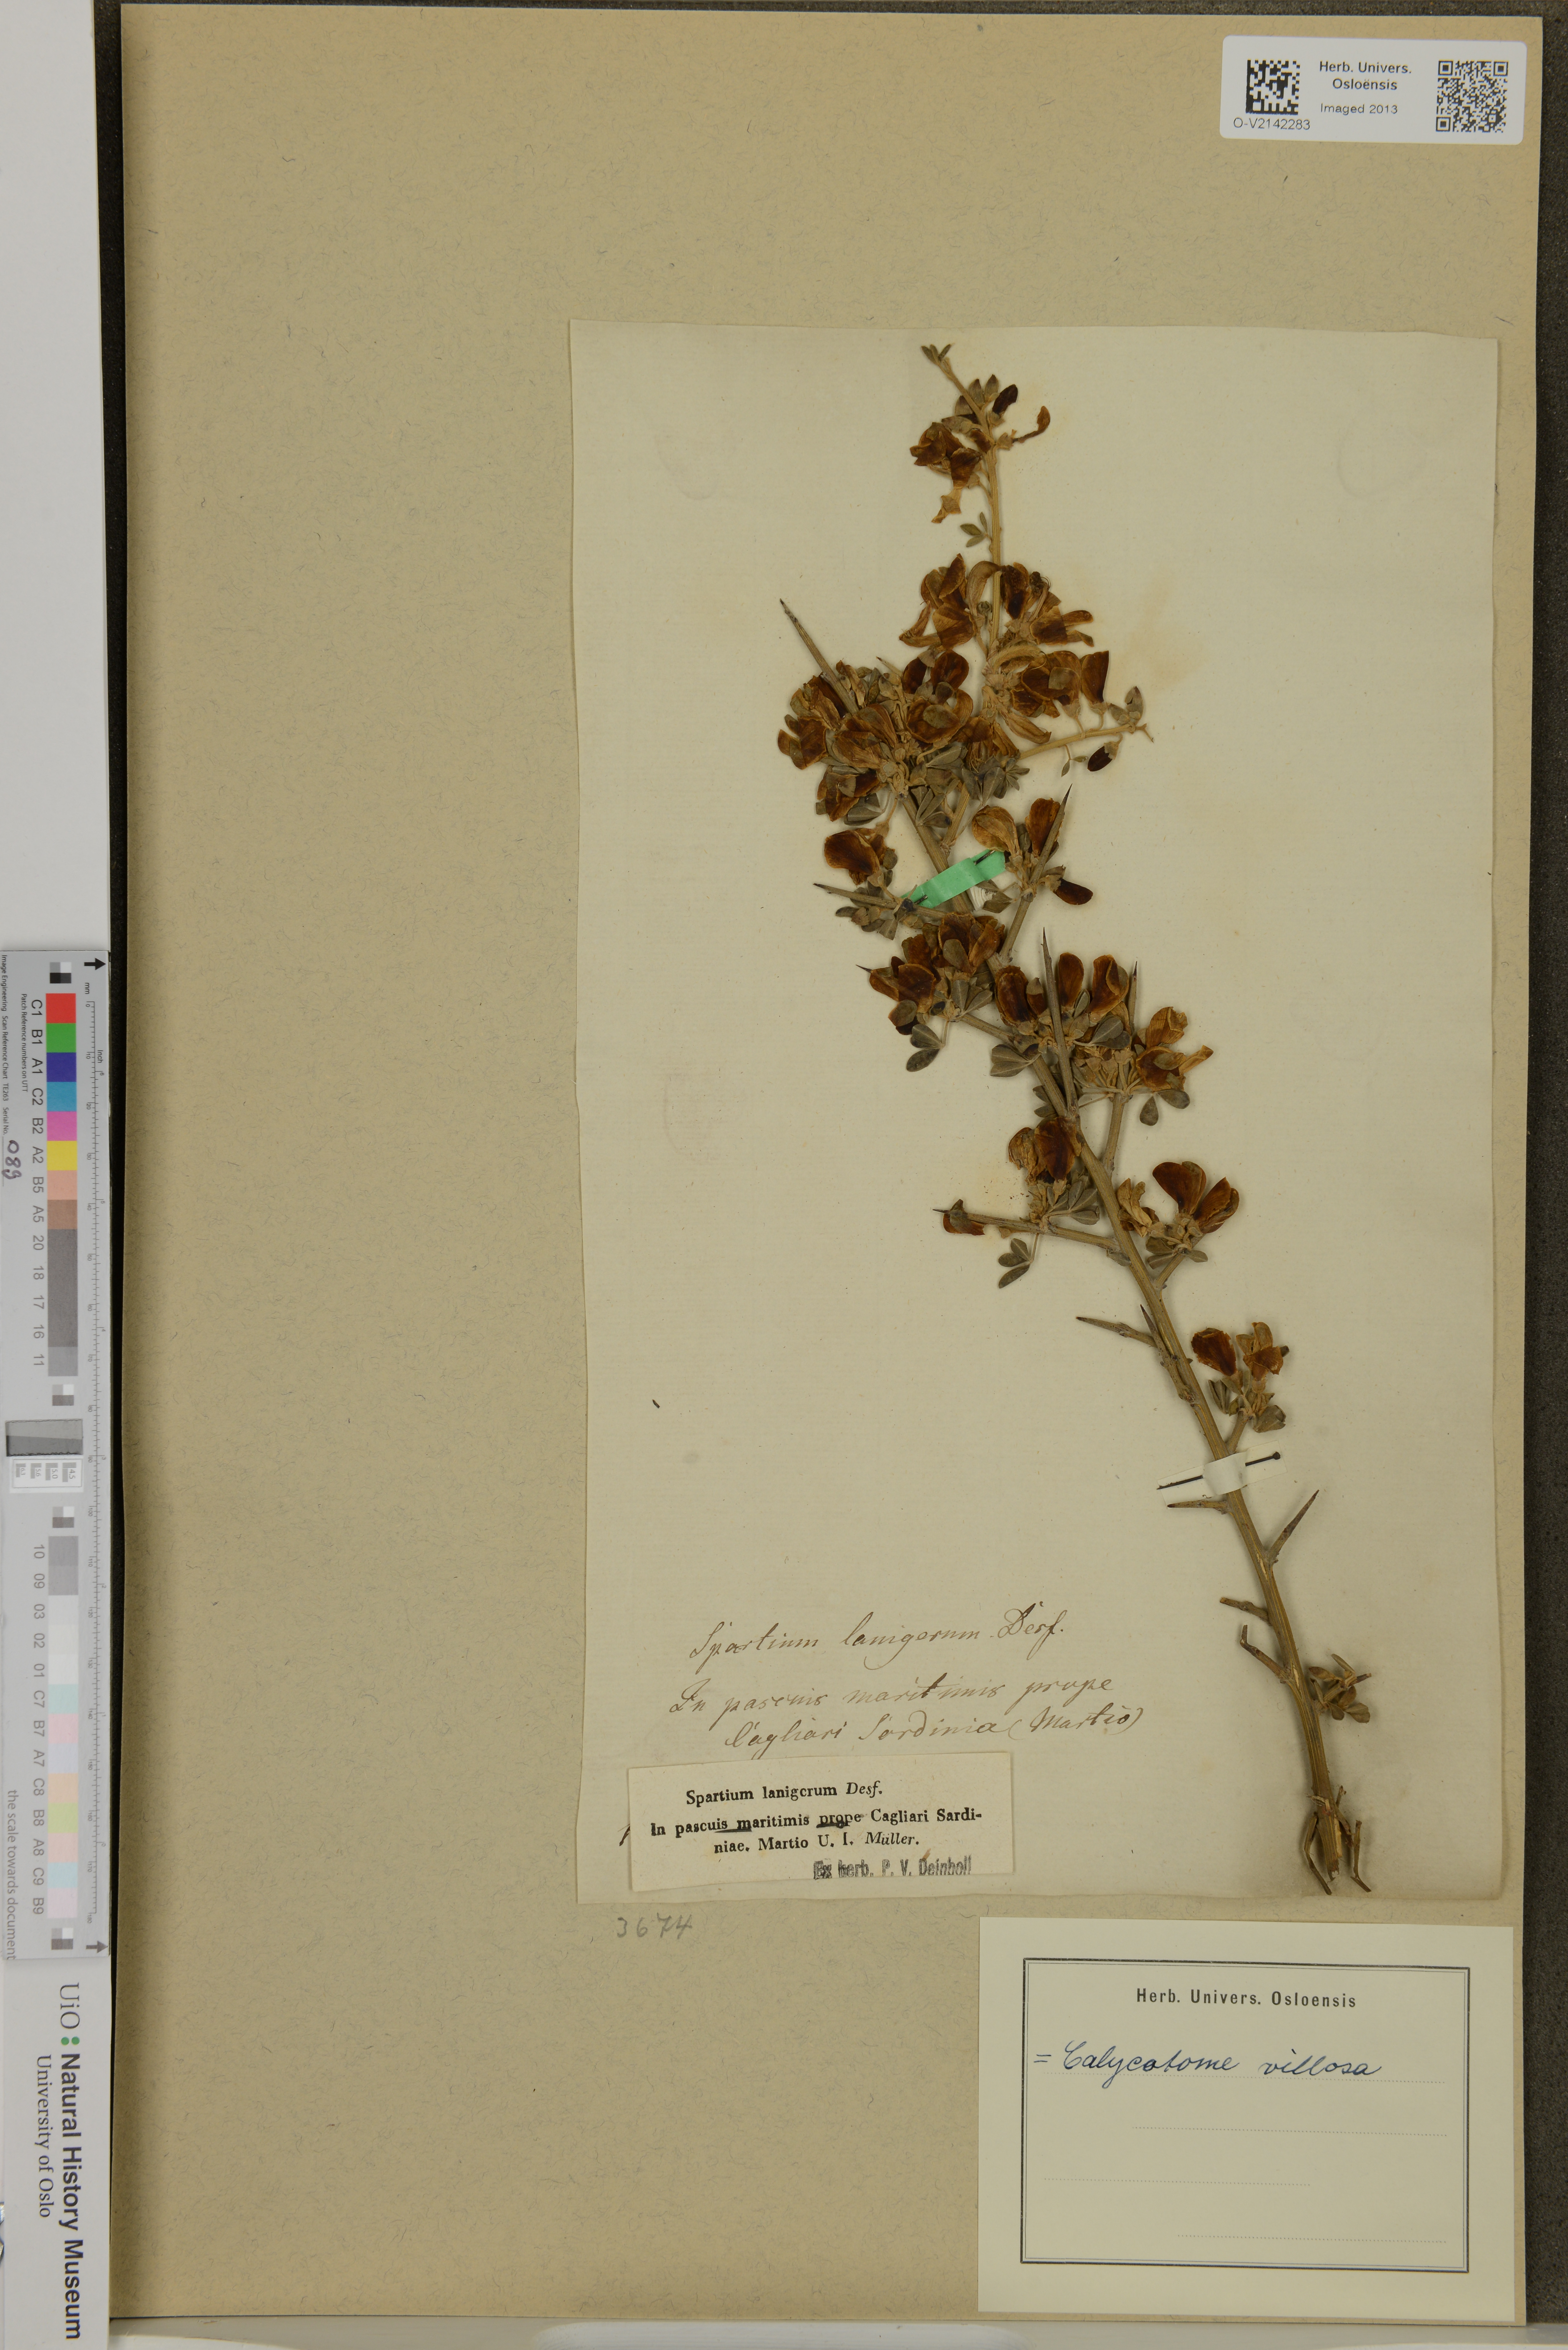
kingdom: Plantae
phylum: Tracheophyta
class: Magnoliopsida
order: Fabales
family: Fabaceae
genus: Calicotome
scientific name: Calicotome villosa
